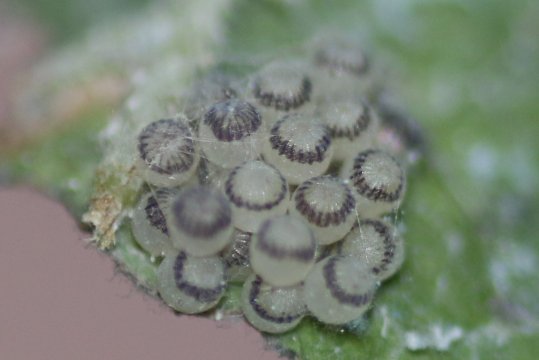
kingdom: Animalia
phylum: Arthropoda
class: Insecta
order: Lepidoptera
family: Nymphalidae
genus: Asterocampa
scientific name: Asterocampa celtis
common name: Hackberry Emperor
